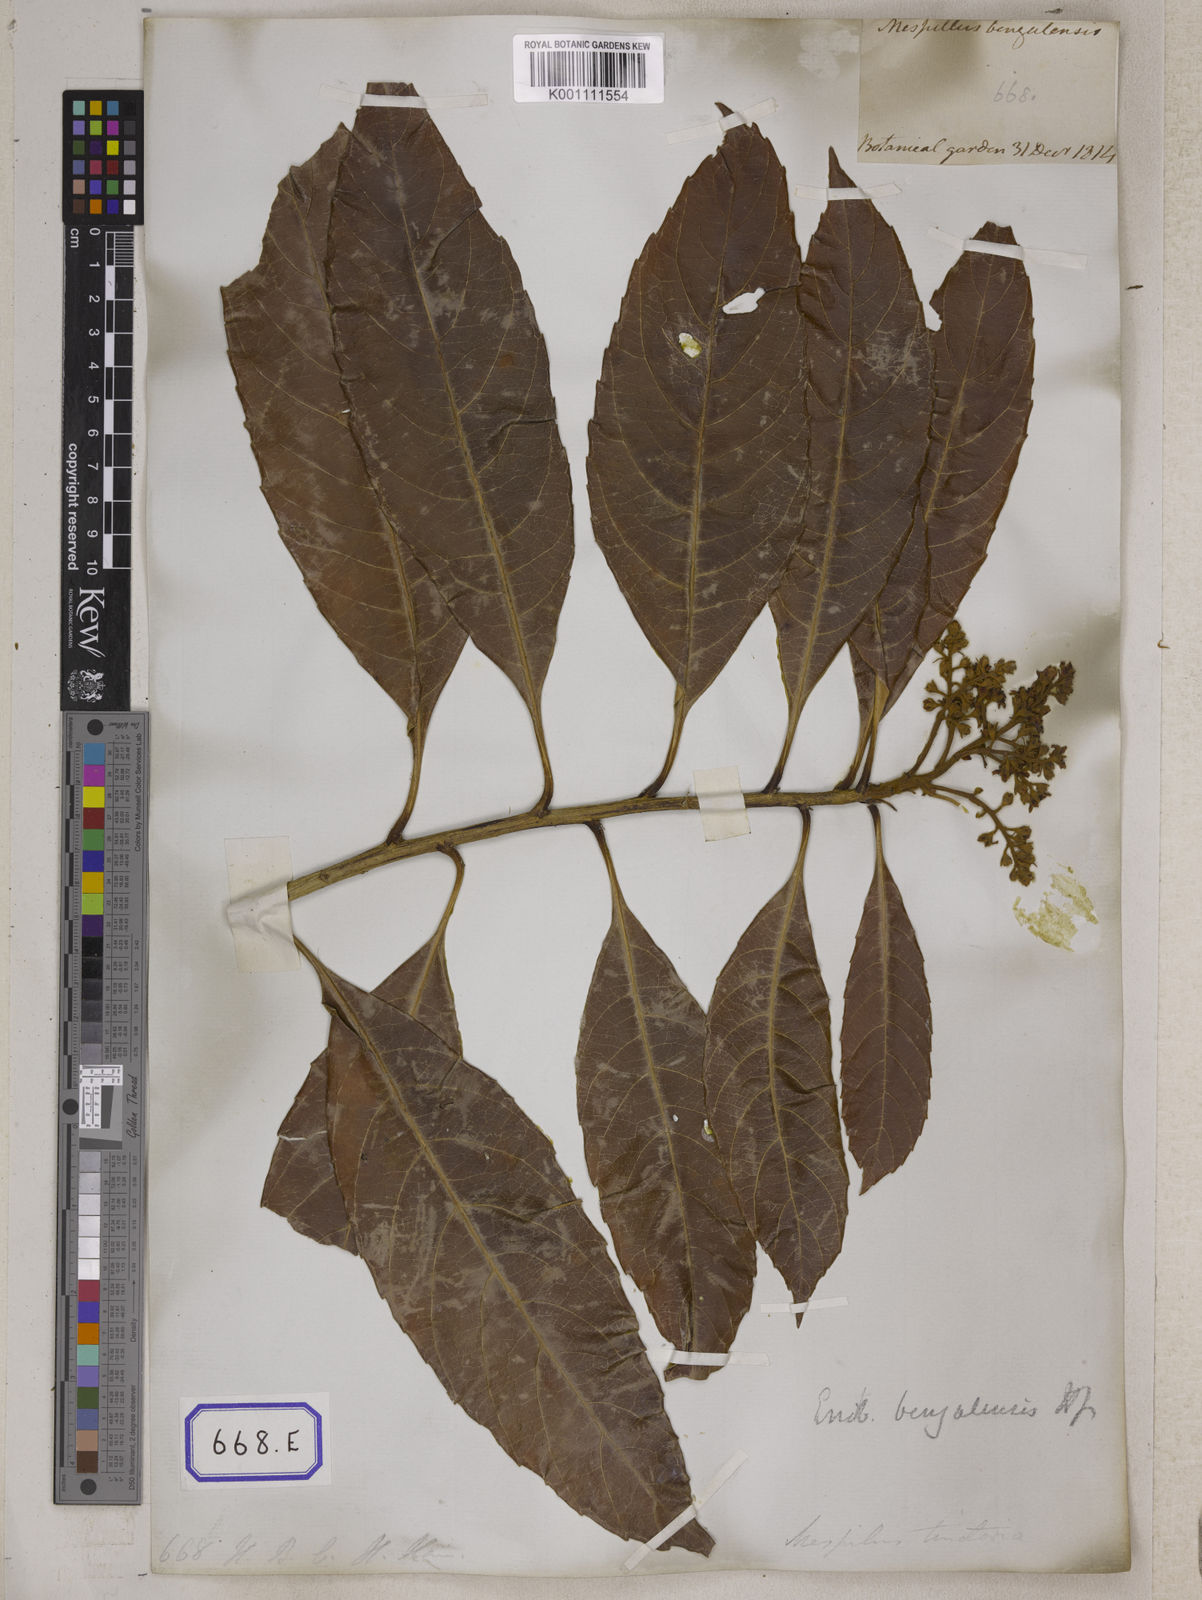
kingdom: Plantae
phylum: Tracheophyta
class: Magnoliopsida
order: Rosales
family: Rosaceae
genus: Rhaphiolepis
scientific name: Rhaphiolepis dubia
